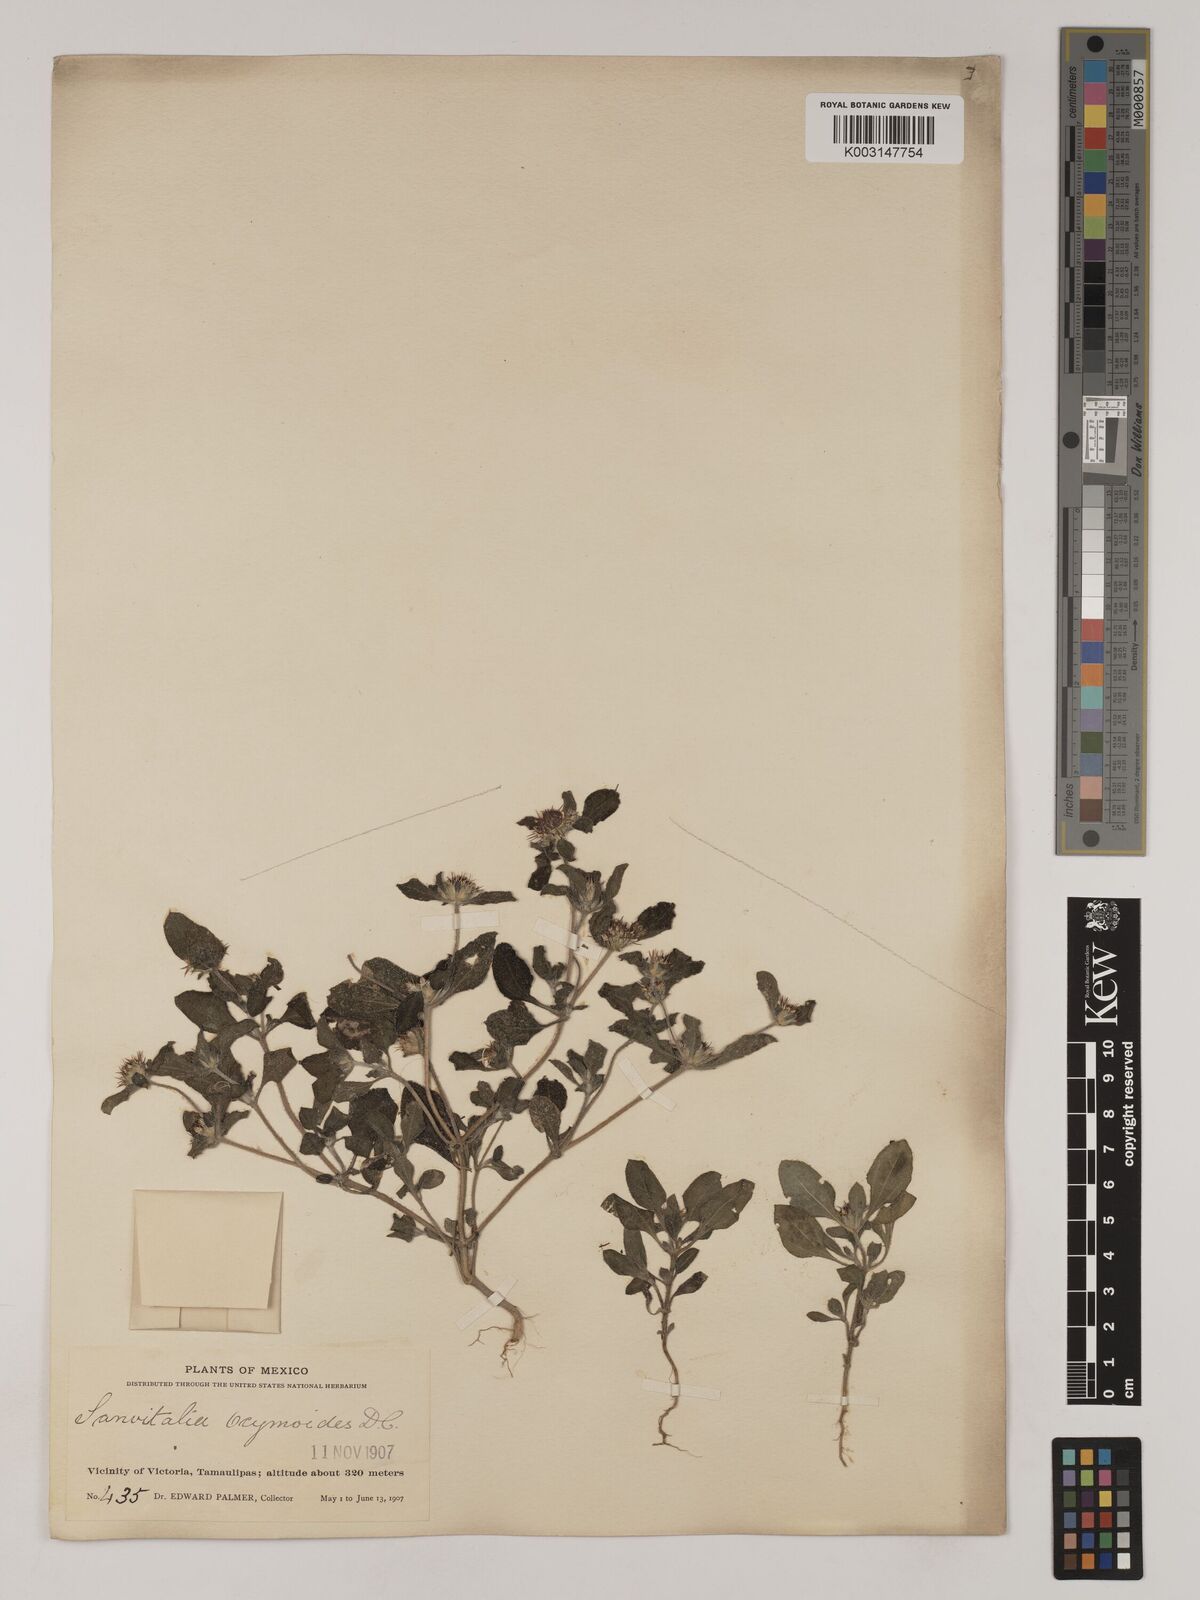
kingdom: Plantae
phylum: Tracheophyta
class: Magnoliopsida
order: Asterales
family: Asteraceae
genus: Sanvitalia
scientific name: Sanvitalia ocymoides
